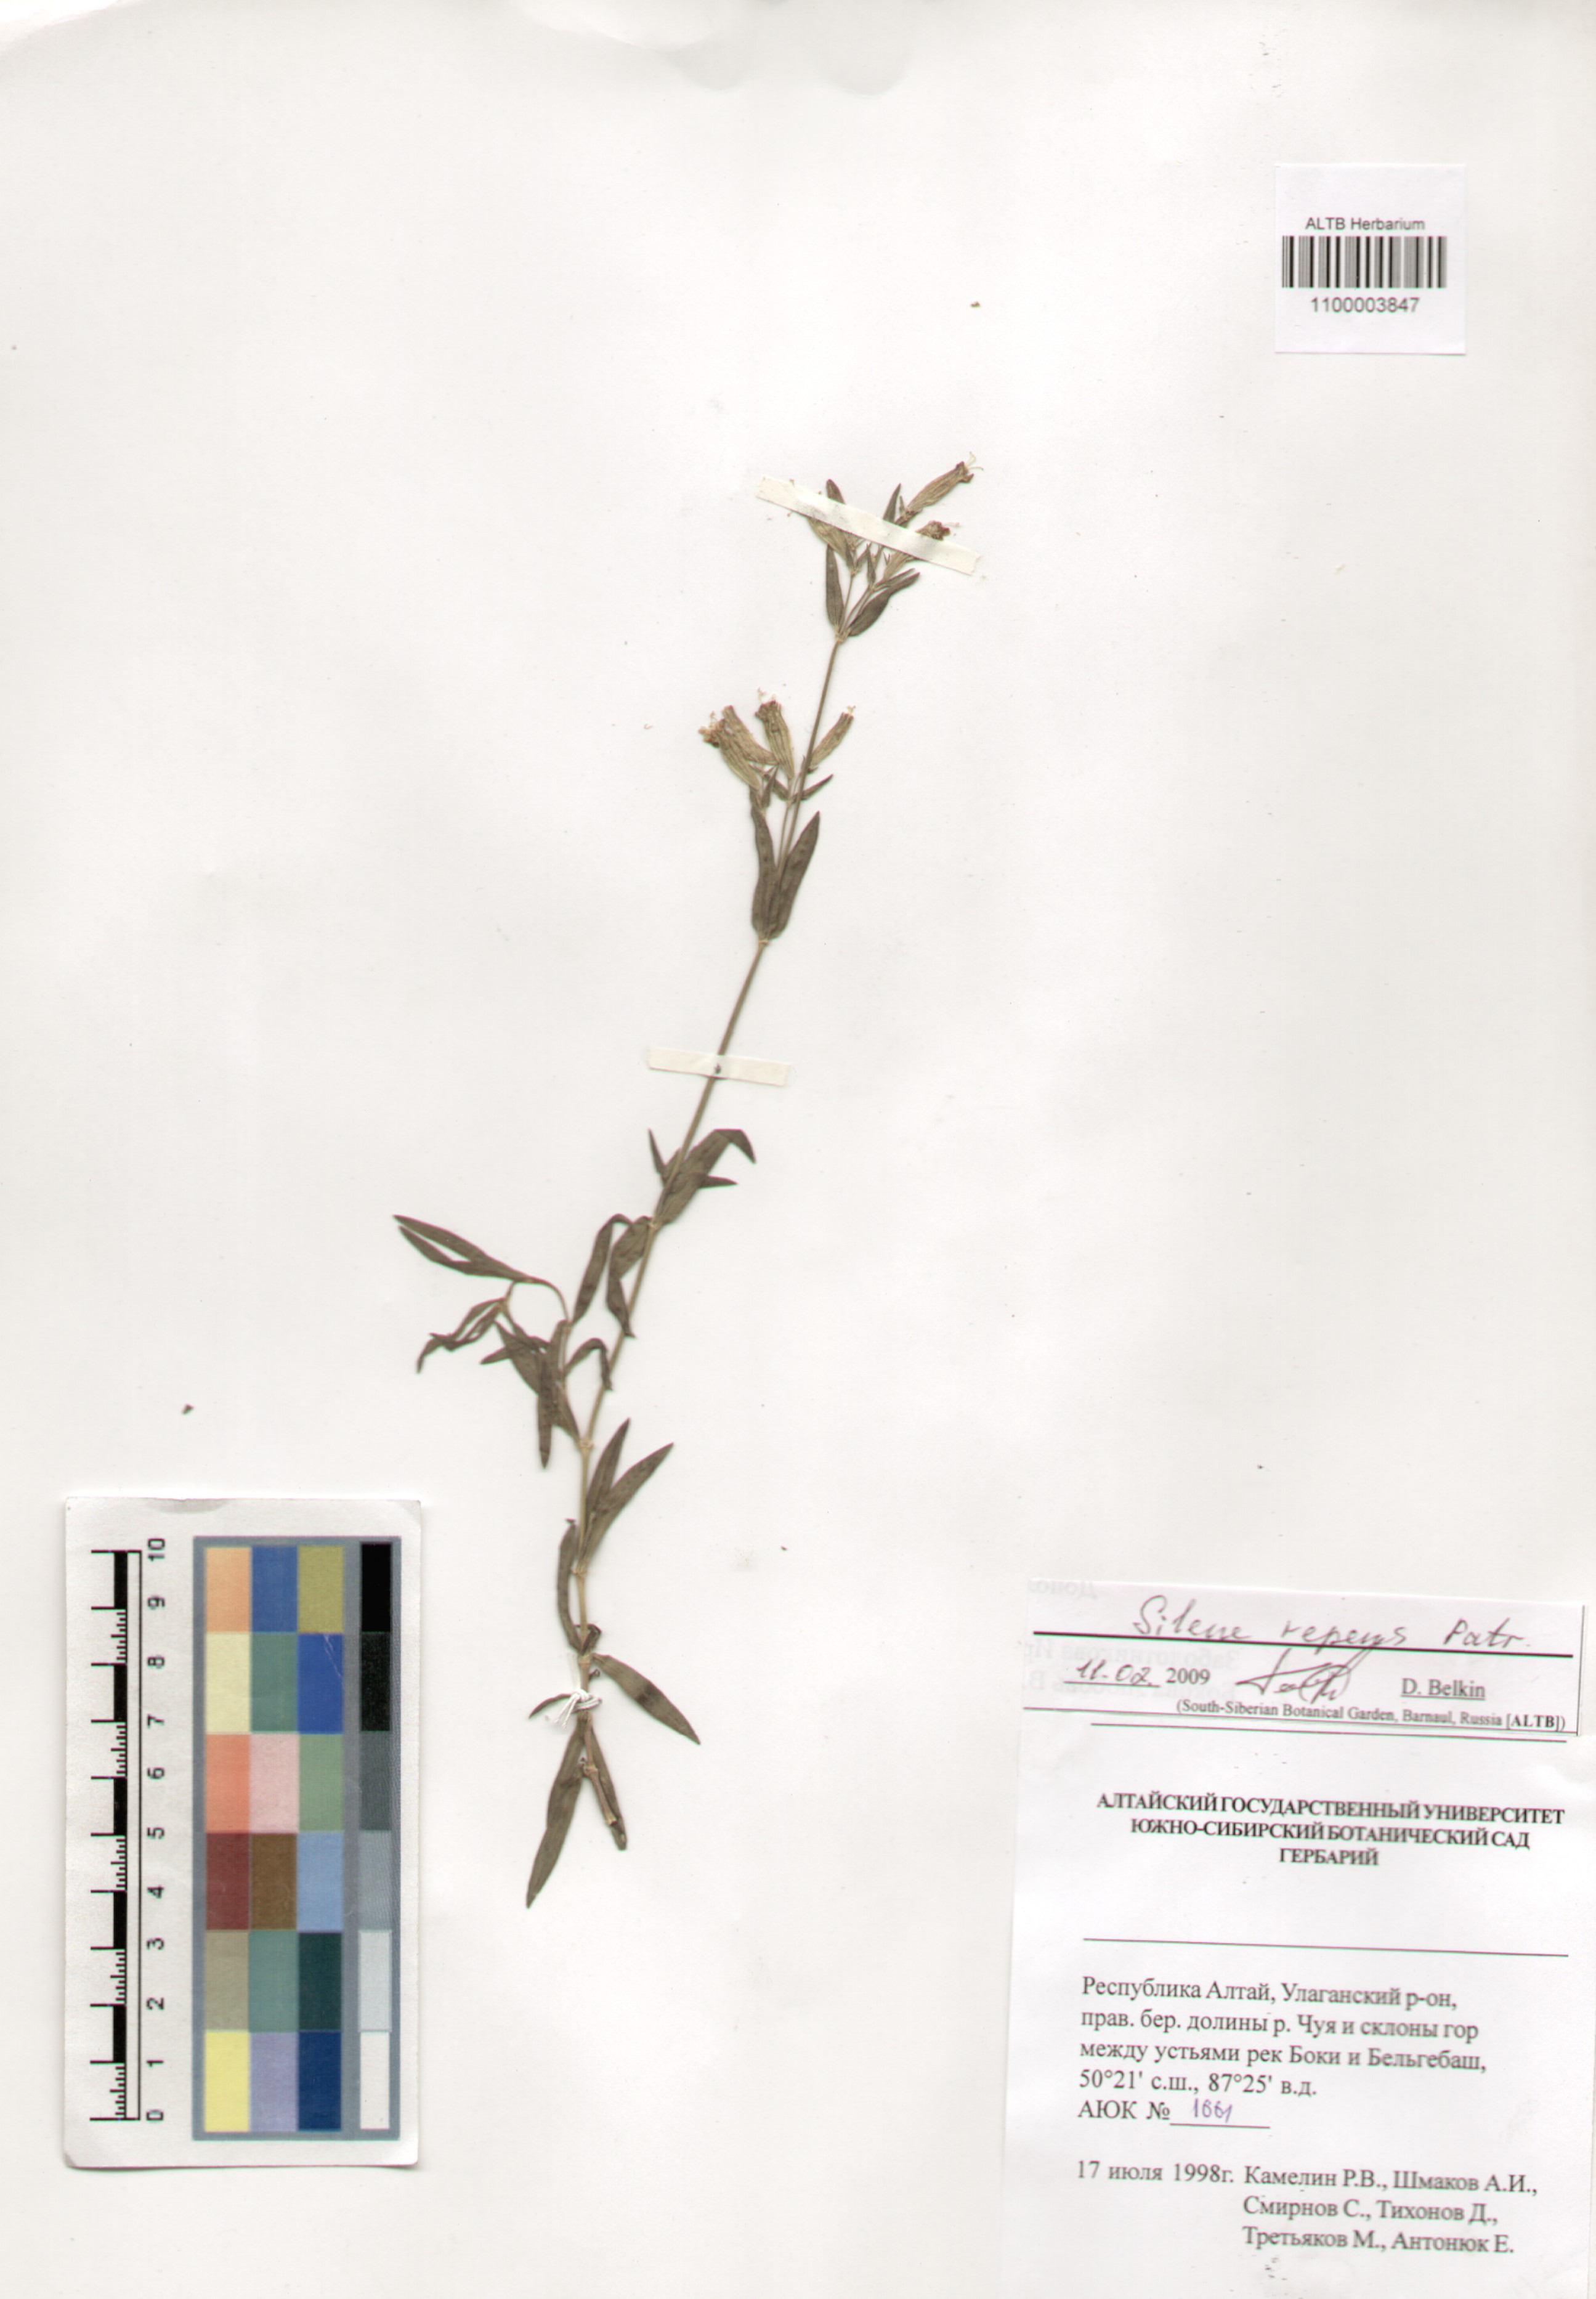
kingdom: Plantae
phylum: Tracheophyta
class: Magnoliopsida
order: Caryophyllales
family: Caryophyllaceae
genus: Silene
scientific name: Silene amoena
